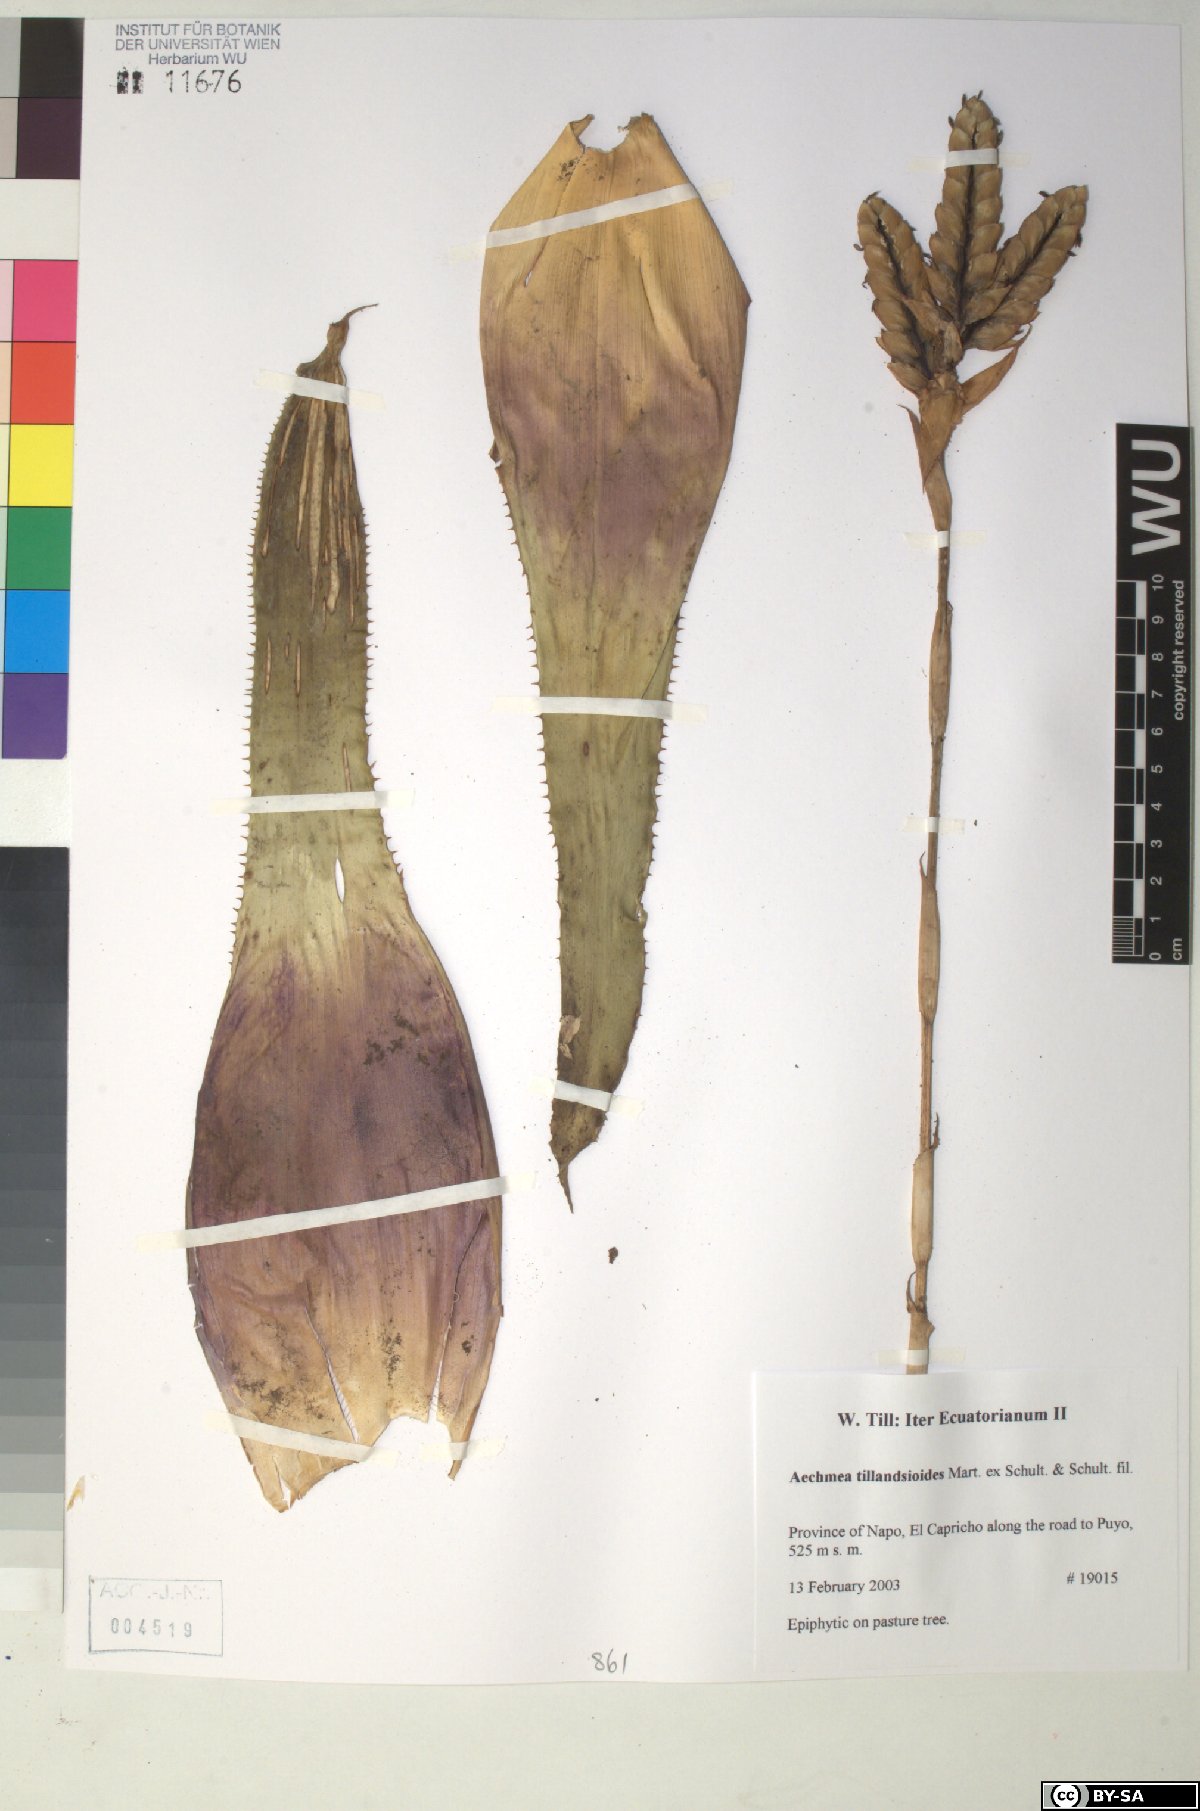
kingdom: Plantae
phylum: Tracheophyta
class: Liliopsida
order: Poales
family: Bromeliaceae
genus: Aechmea
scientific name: Aechmea tillandsioides
